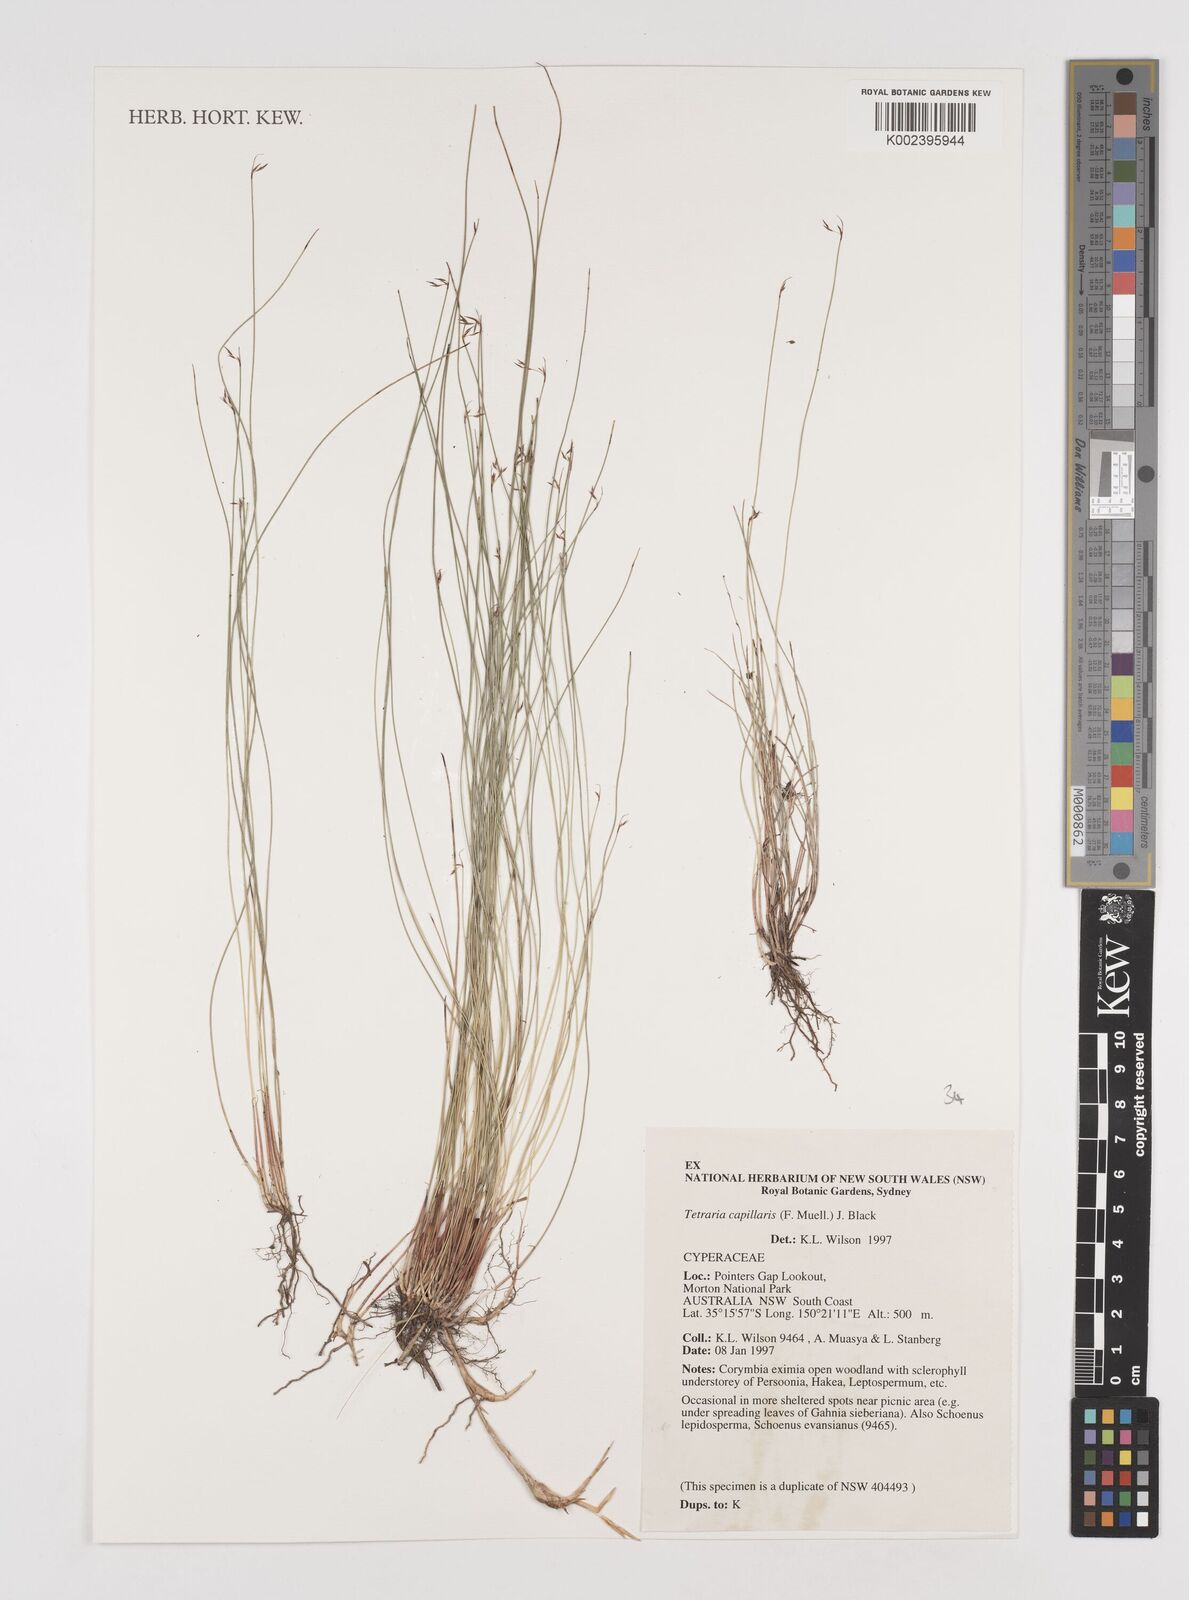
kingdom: Plantae
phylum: Tracheophyta
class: Liliopsida
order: Poales
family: Cyperaceae
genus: Tetraria
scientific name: Tetraria capillaris
